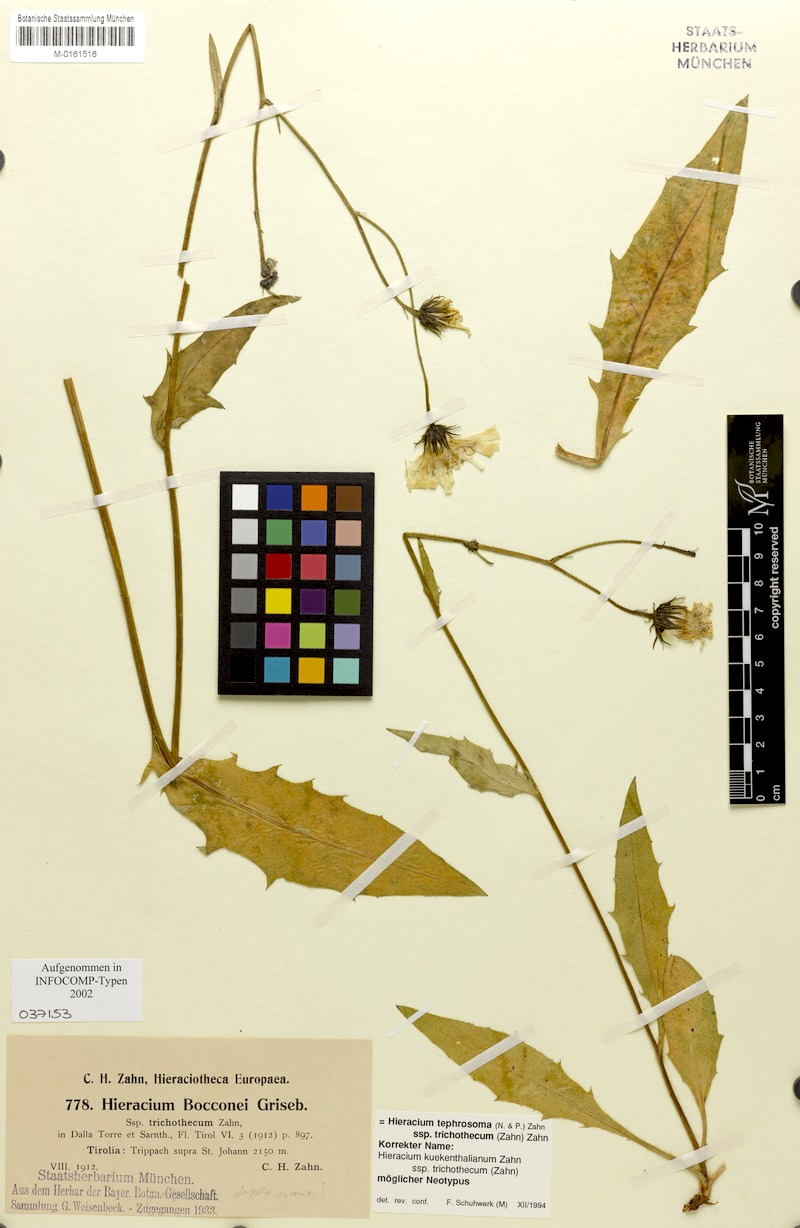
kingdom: Plantae
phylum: Tracheophyta
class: Magnoliopsida
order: Asterales
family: Asteraceae
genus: Hieracium
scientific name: Hieracium tephrosoma
